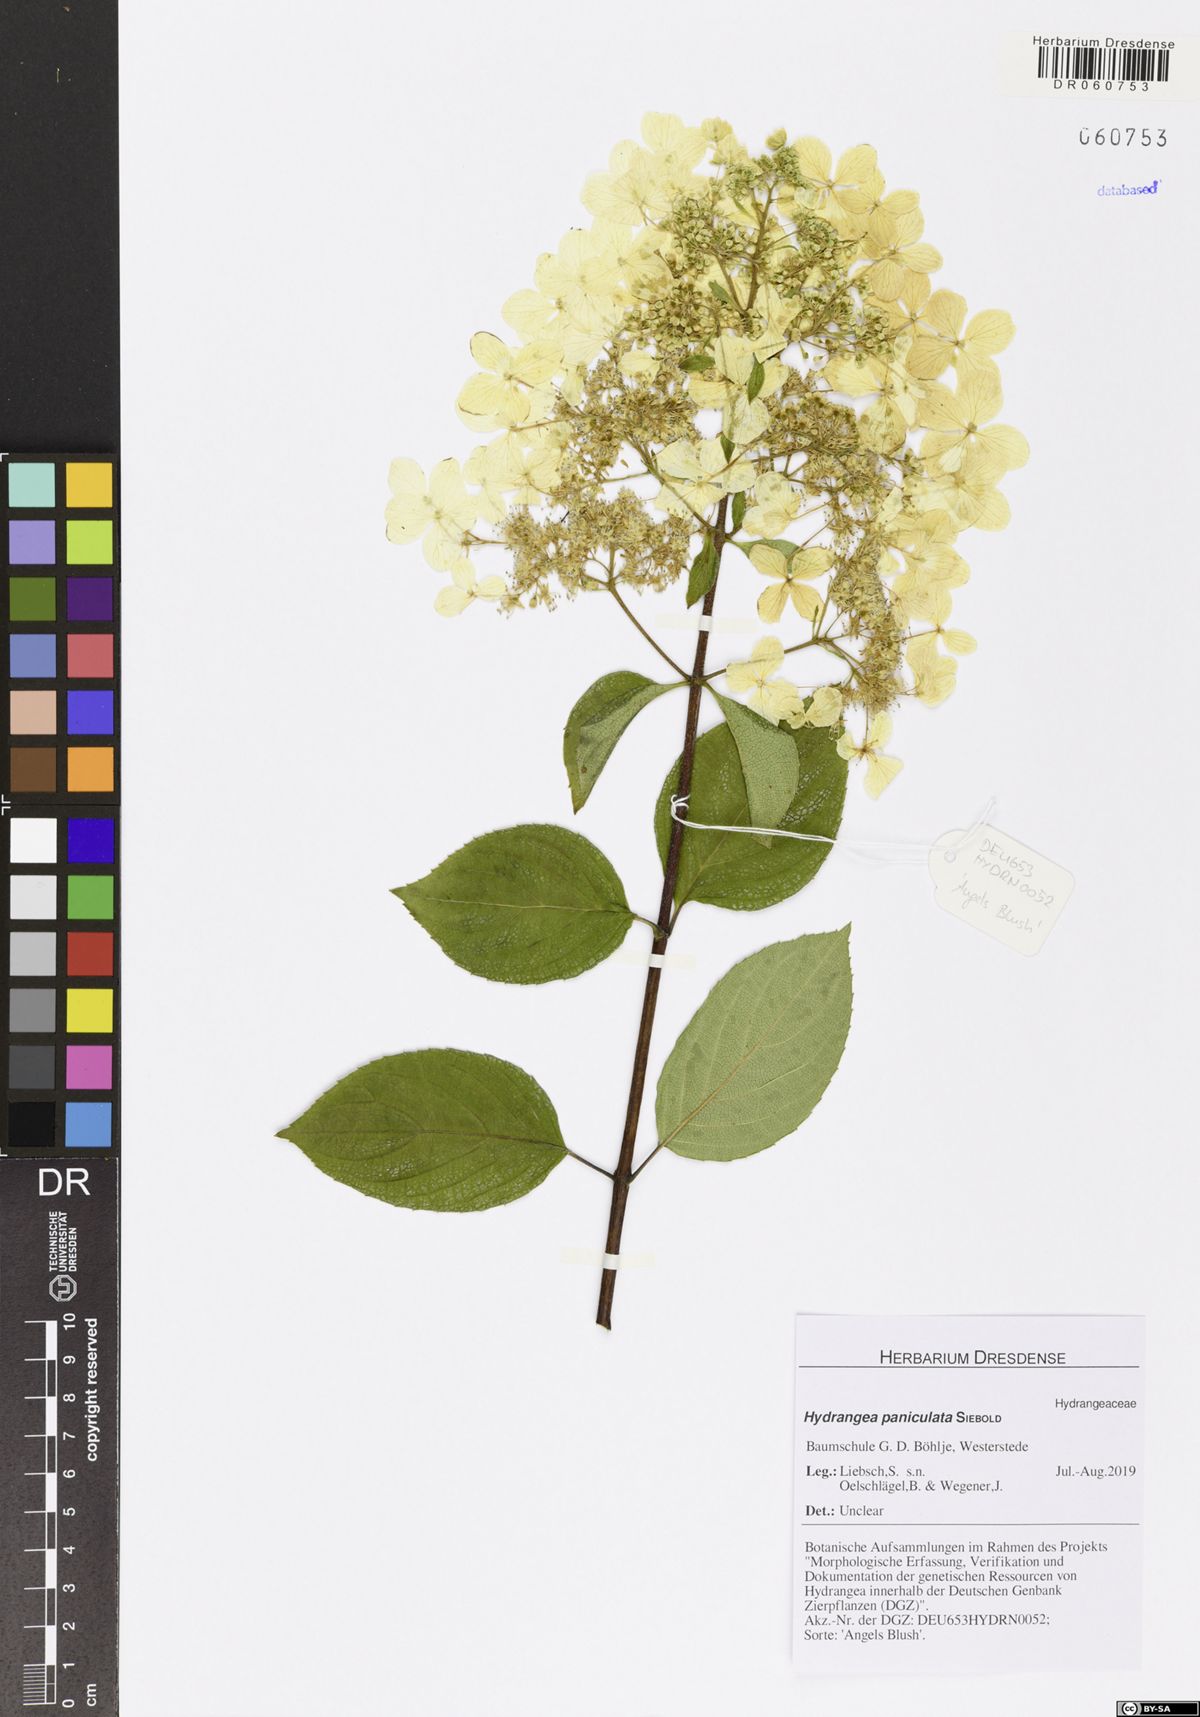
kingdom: Plantae
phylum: Tracheophyta
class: Magnoliopsida
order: Cornales
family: Hydrangeaceae
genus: Hydrangea
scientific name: Hydrangea paniculata
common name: Panicled hydrangea
